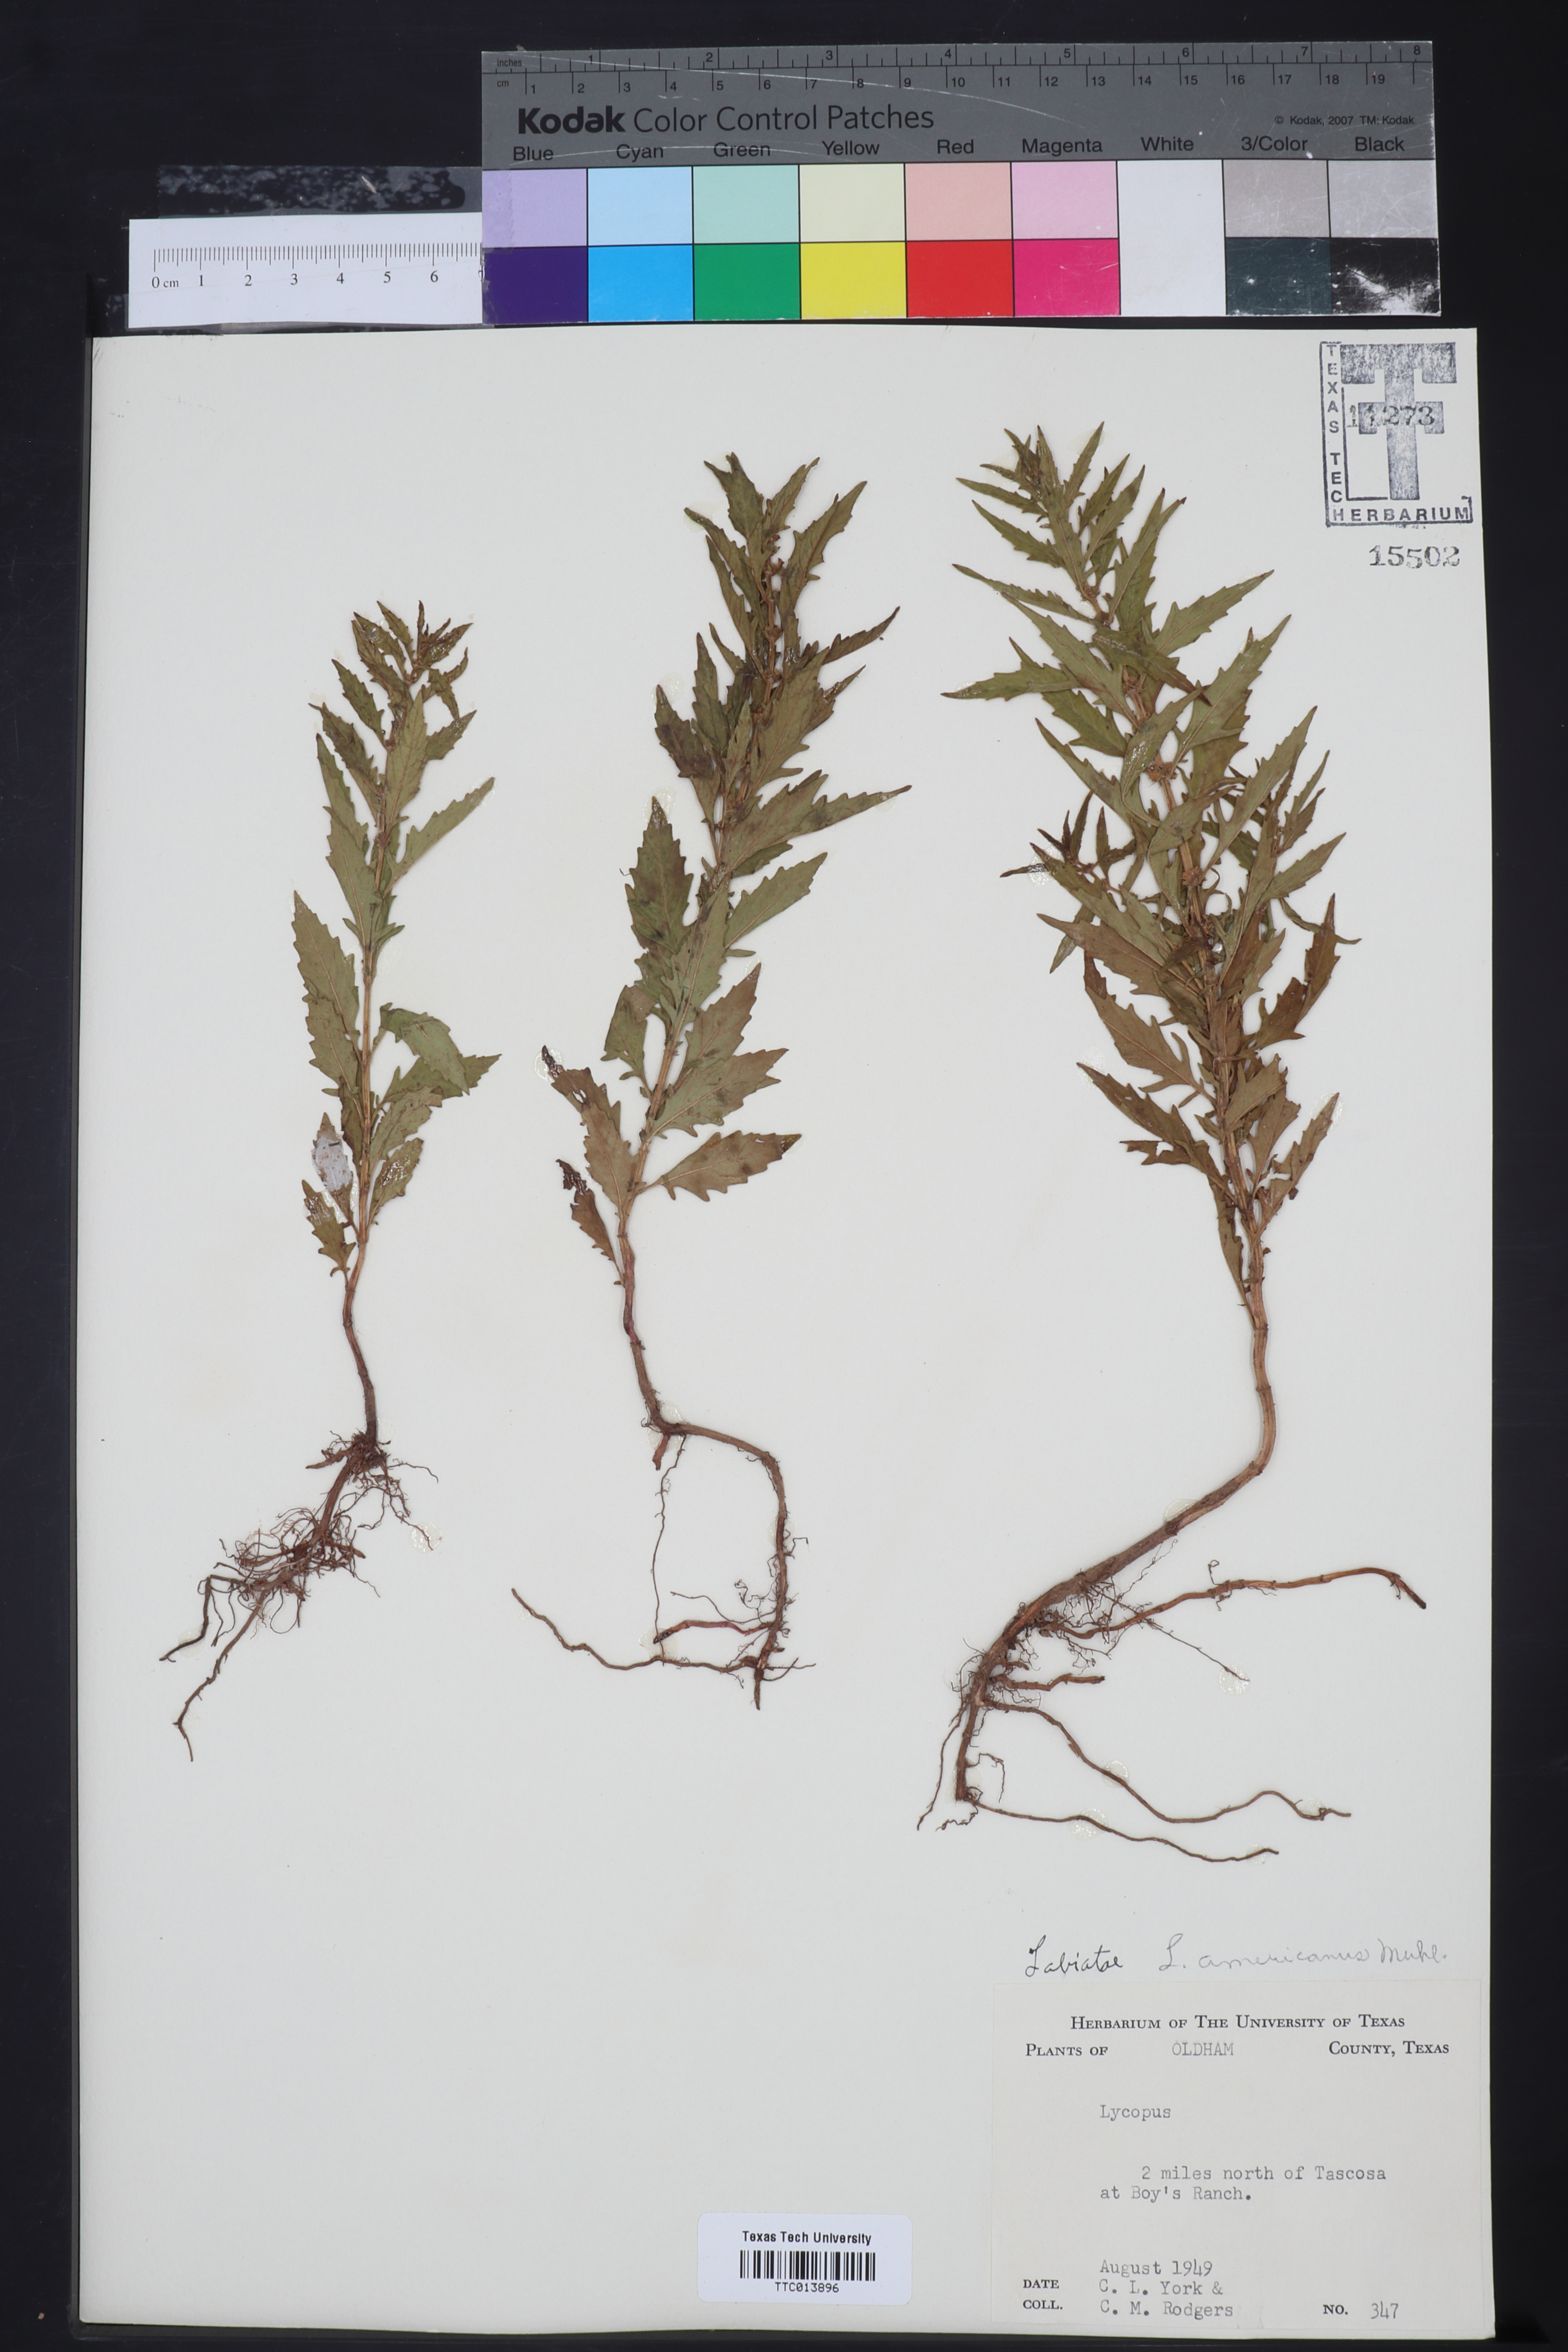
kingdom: Plantae
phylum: Tracheophyta
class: Magnoliopsida
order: Lamiales
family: Lamiaceae
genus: Lycopus
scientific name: Lycopus americanus
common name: American bugleweed
